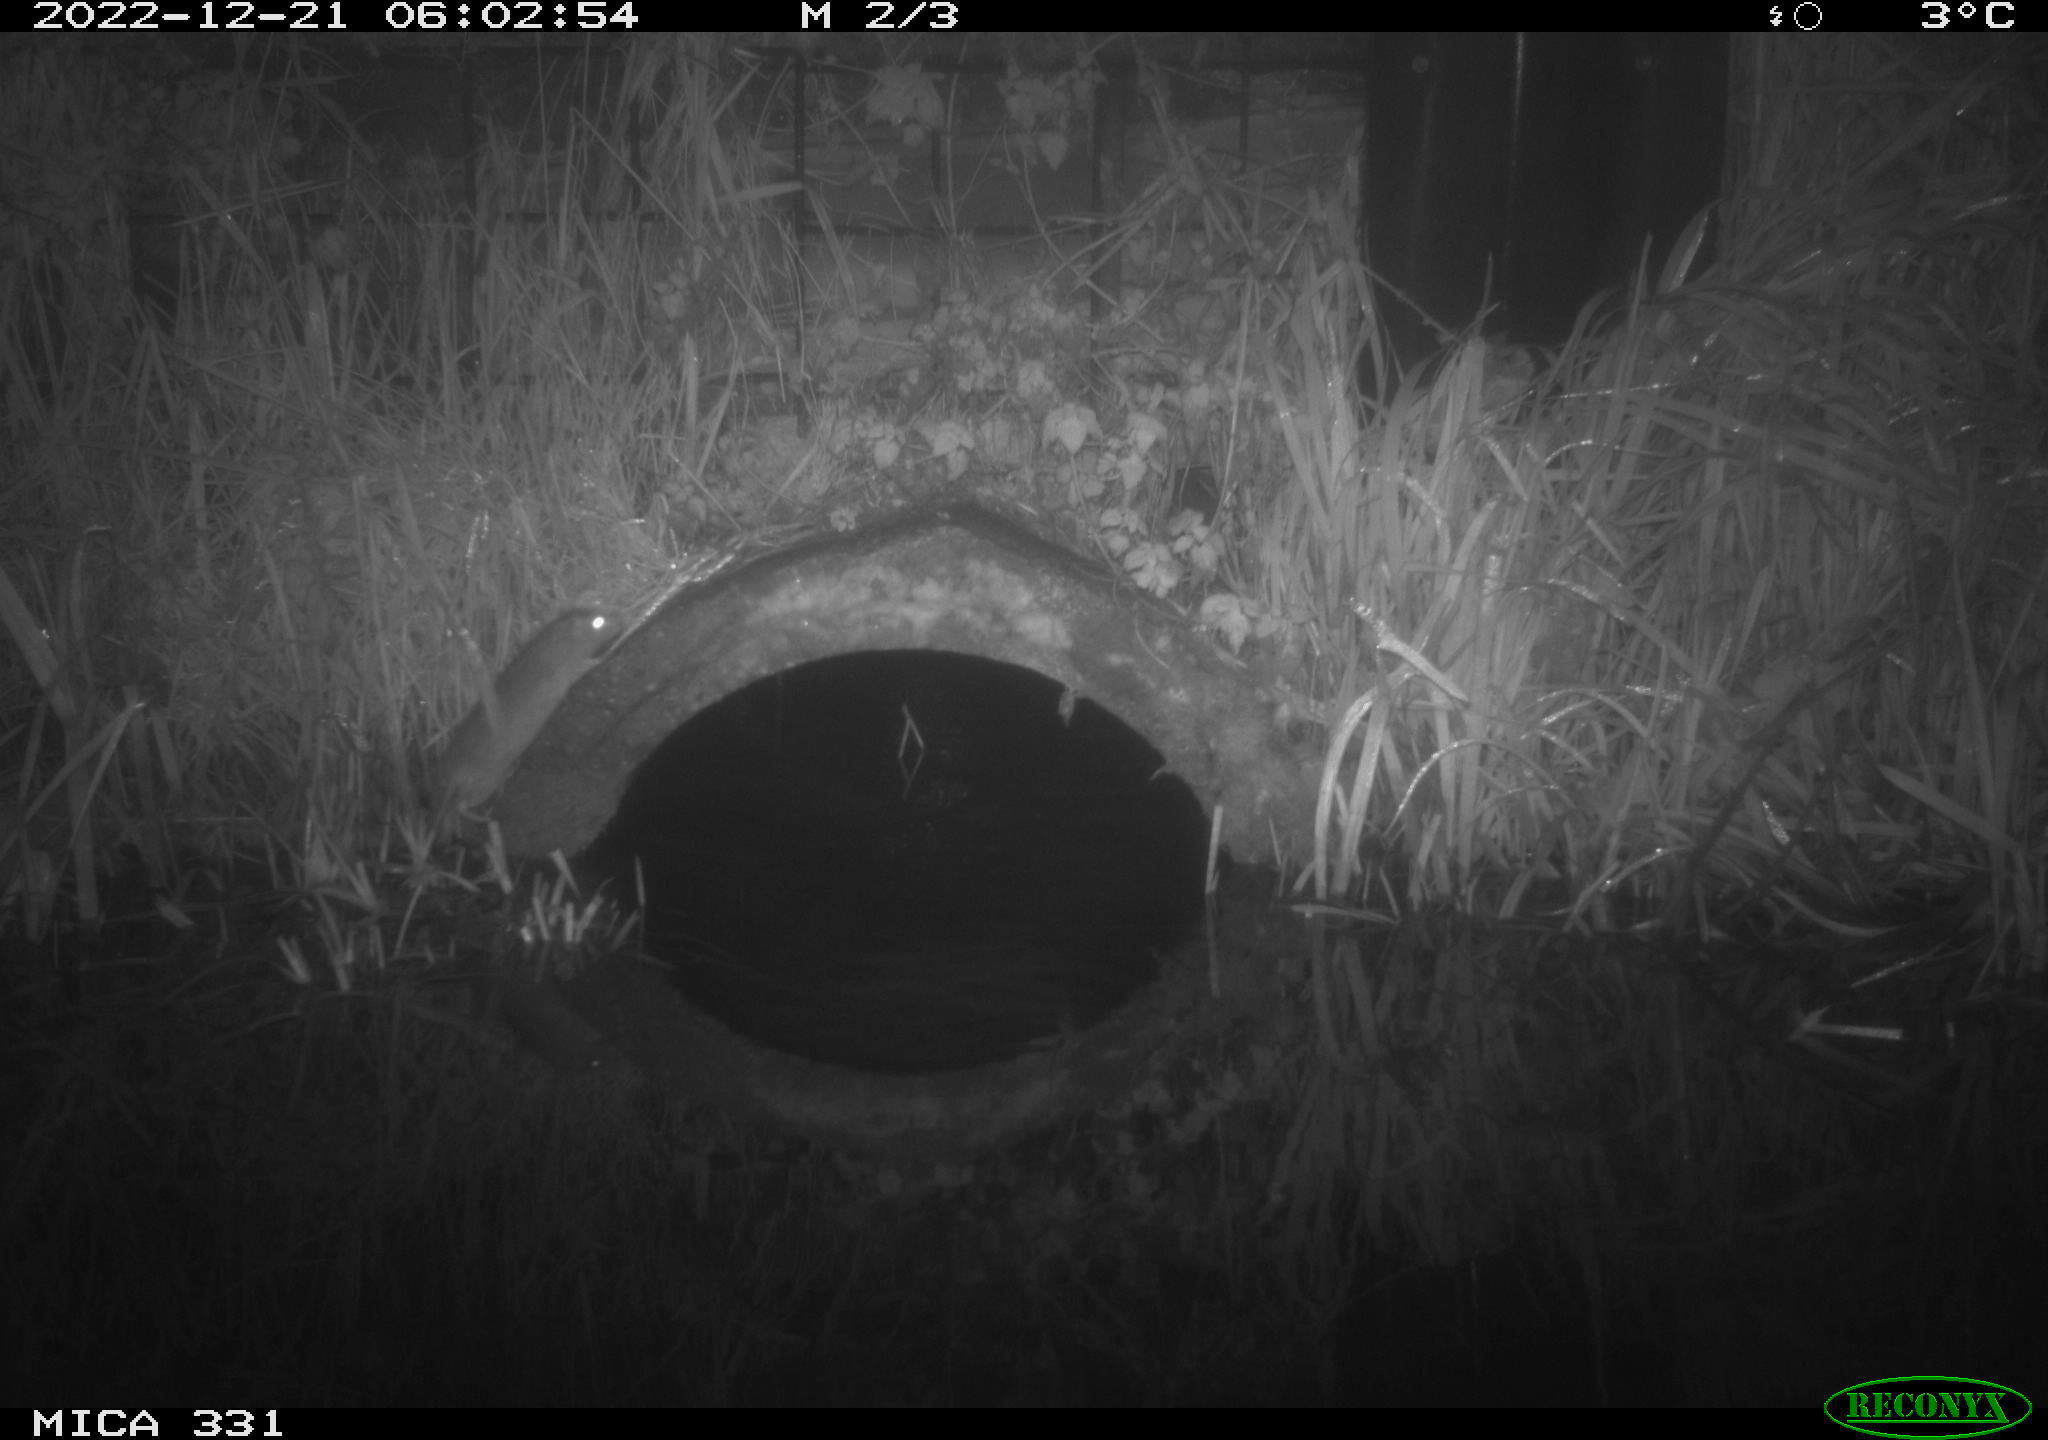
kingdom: Animalia
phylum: Chordata
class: Mammalia
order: Rodentia
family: Muridae
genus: Rattus
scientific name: Rattus norvegicus
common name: Brown rat
